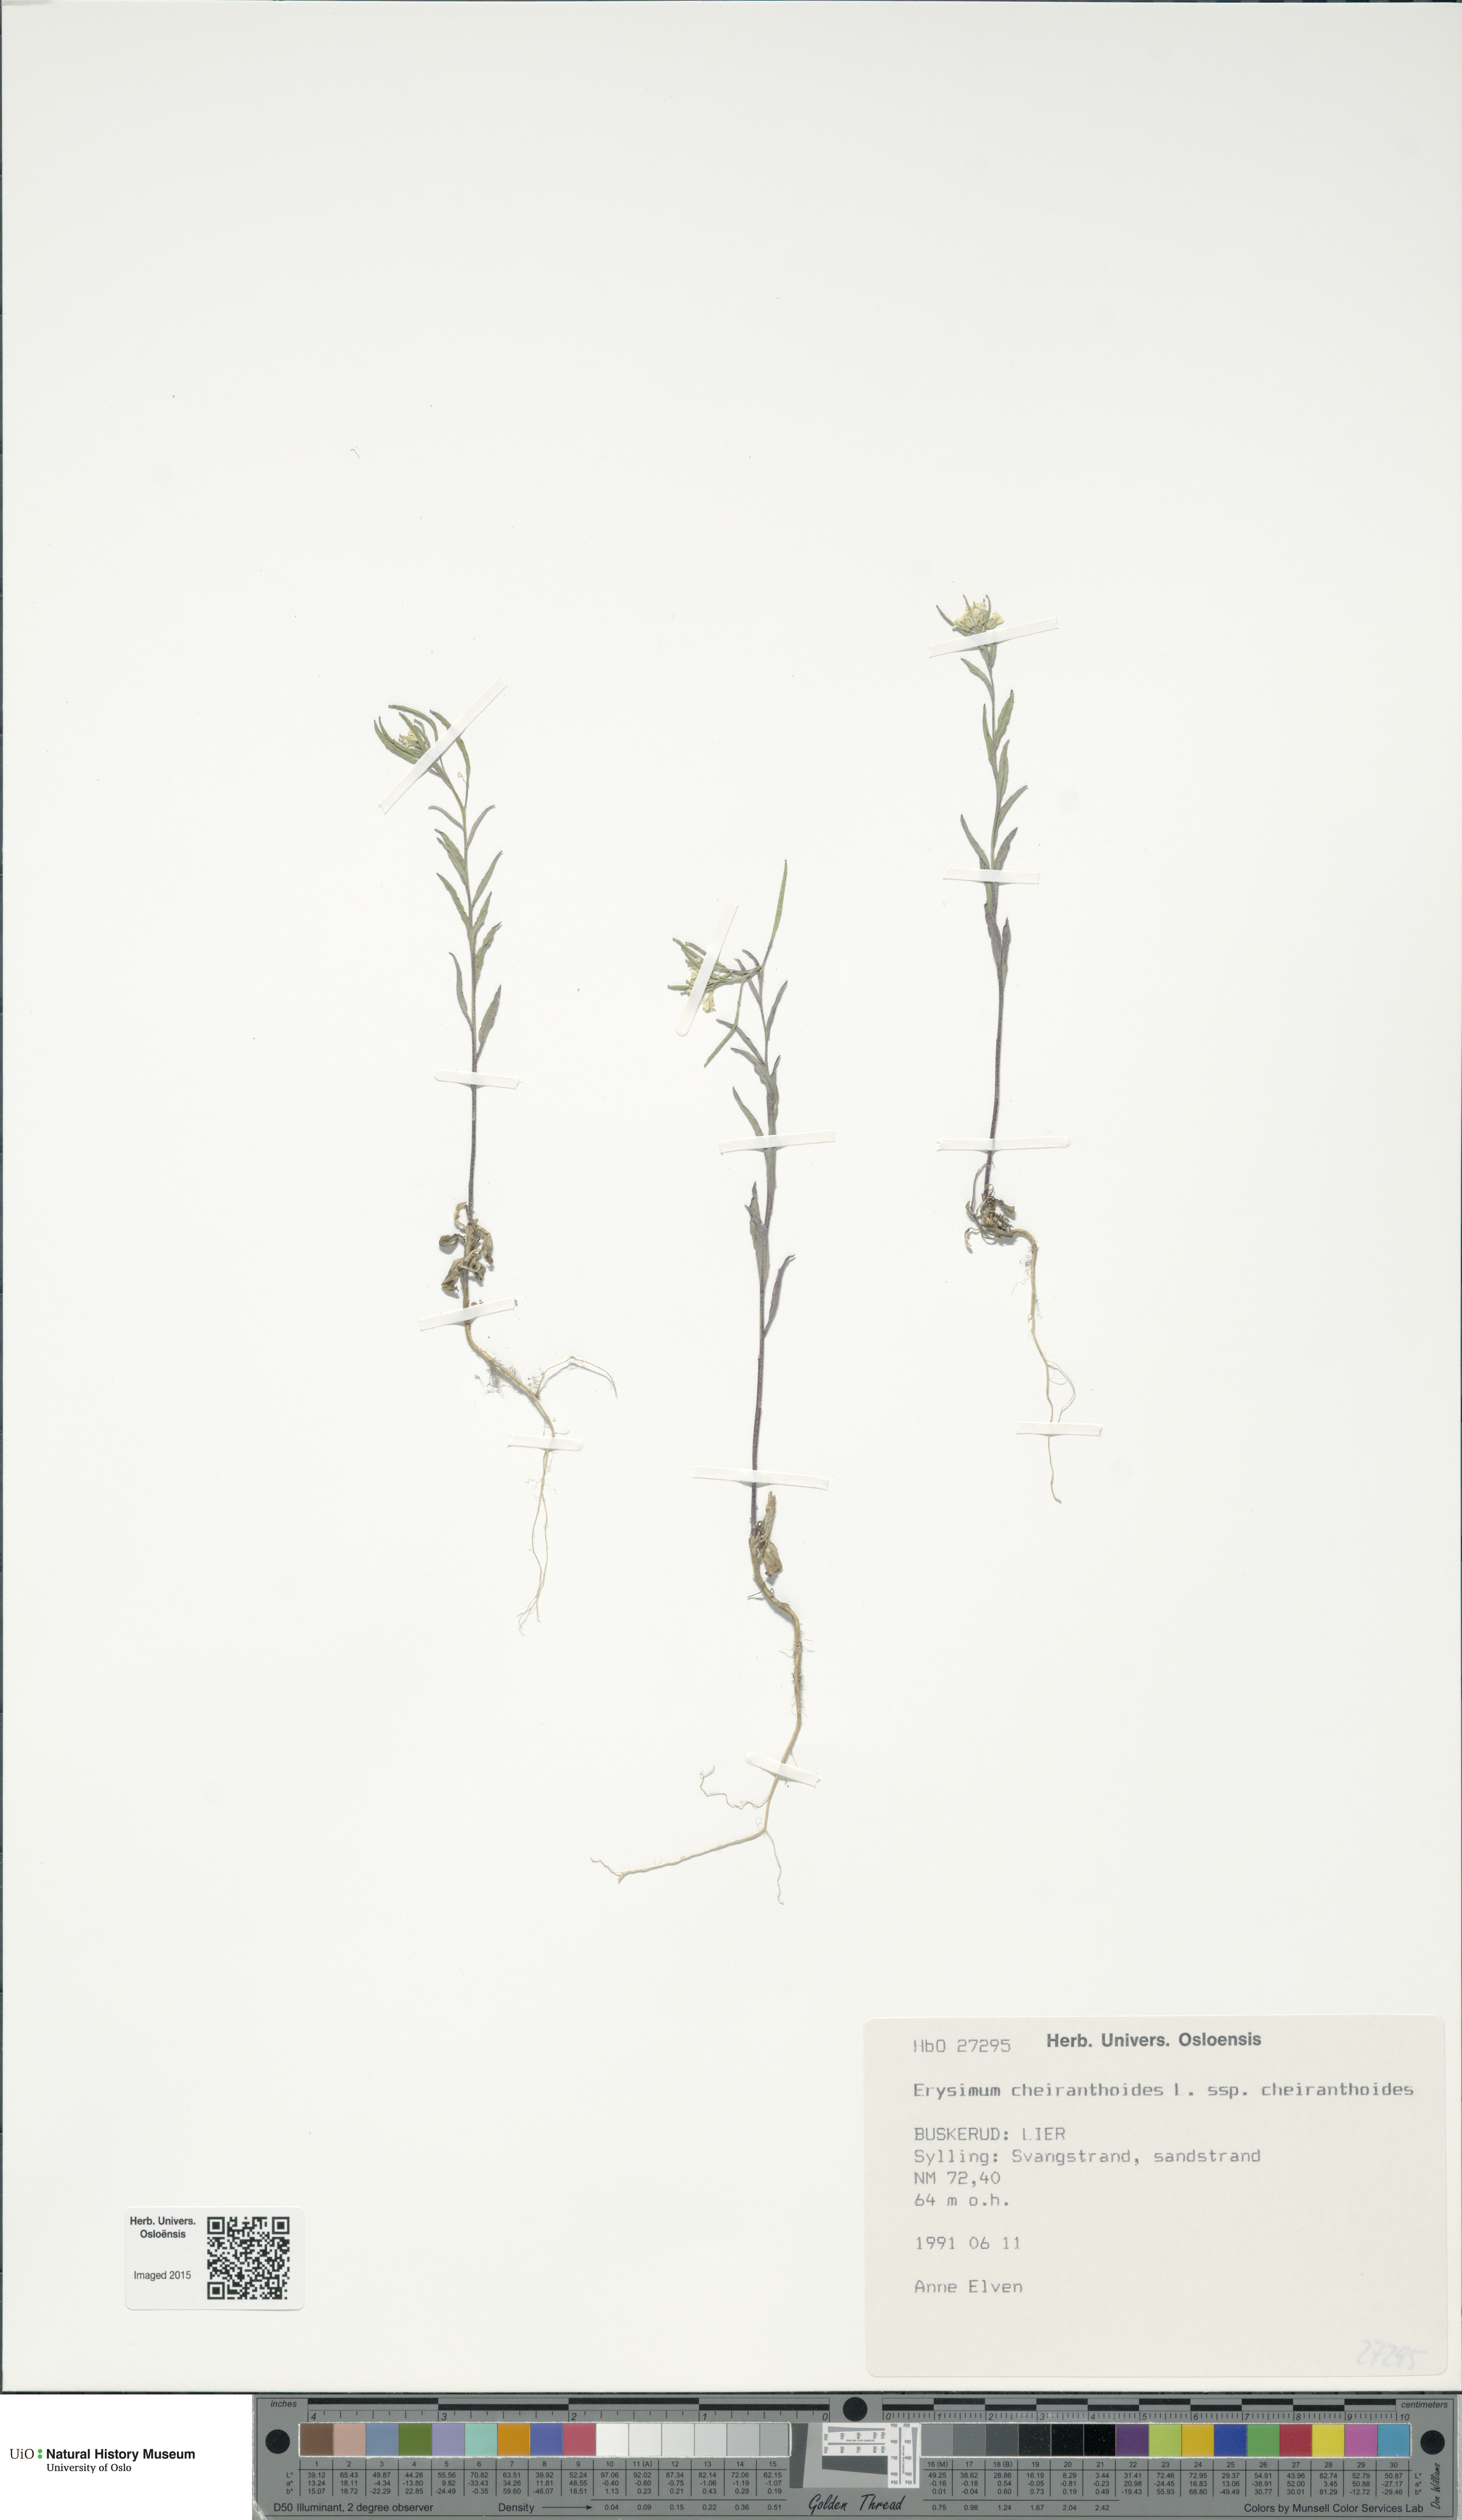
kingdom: Plantae
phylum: Tracheophyta
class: Magnoliopsida
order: Brassicales
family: Brassicaceae
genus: Erysimum
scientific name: Erysimum cheiranthoides
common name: Treacle mustard
